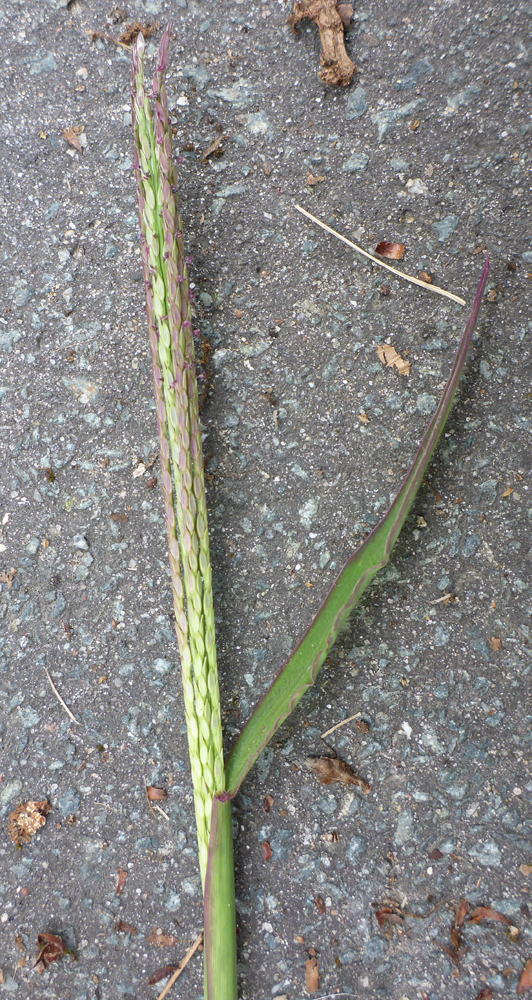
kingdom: Plantae
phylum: Tracheophyta
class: Liliopsida
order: Poales
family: Poaceae
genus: Cynodon
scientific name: Cynodon dactylon
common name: Bermuda grass
